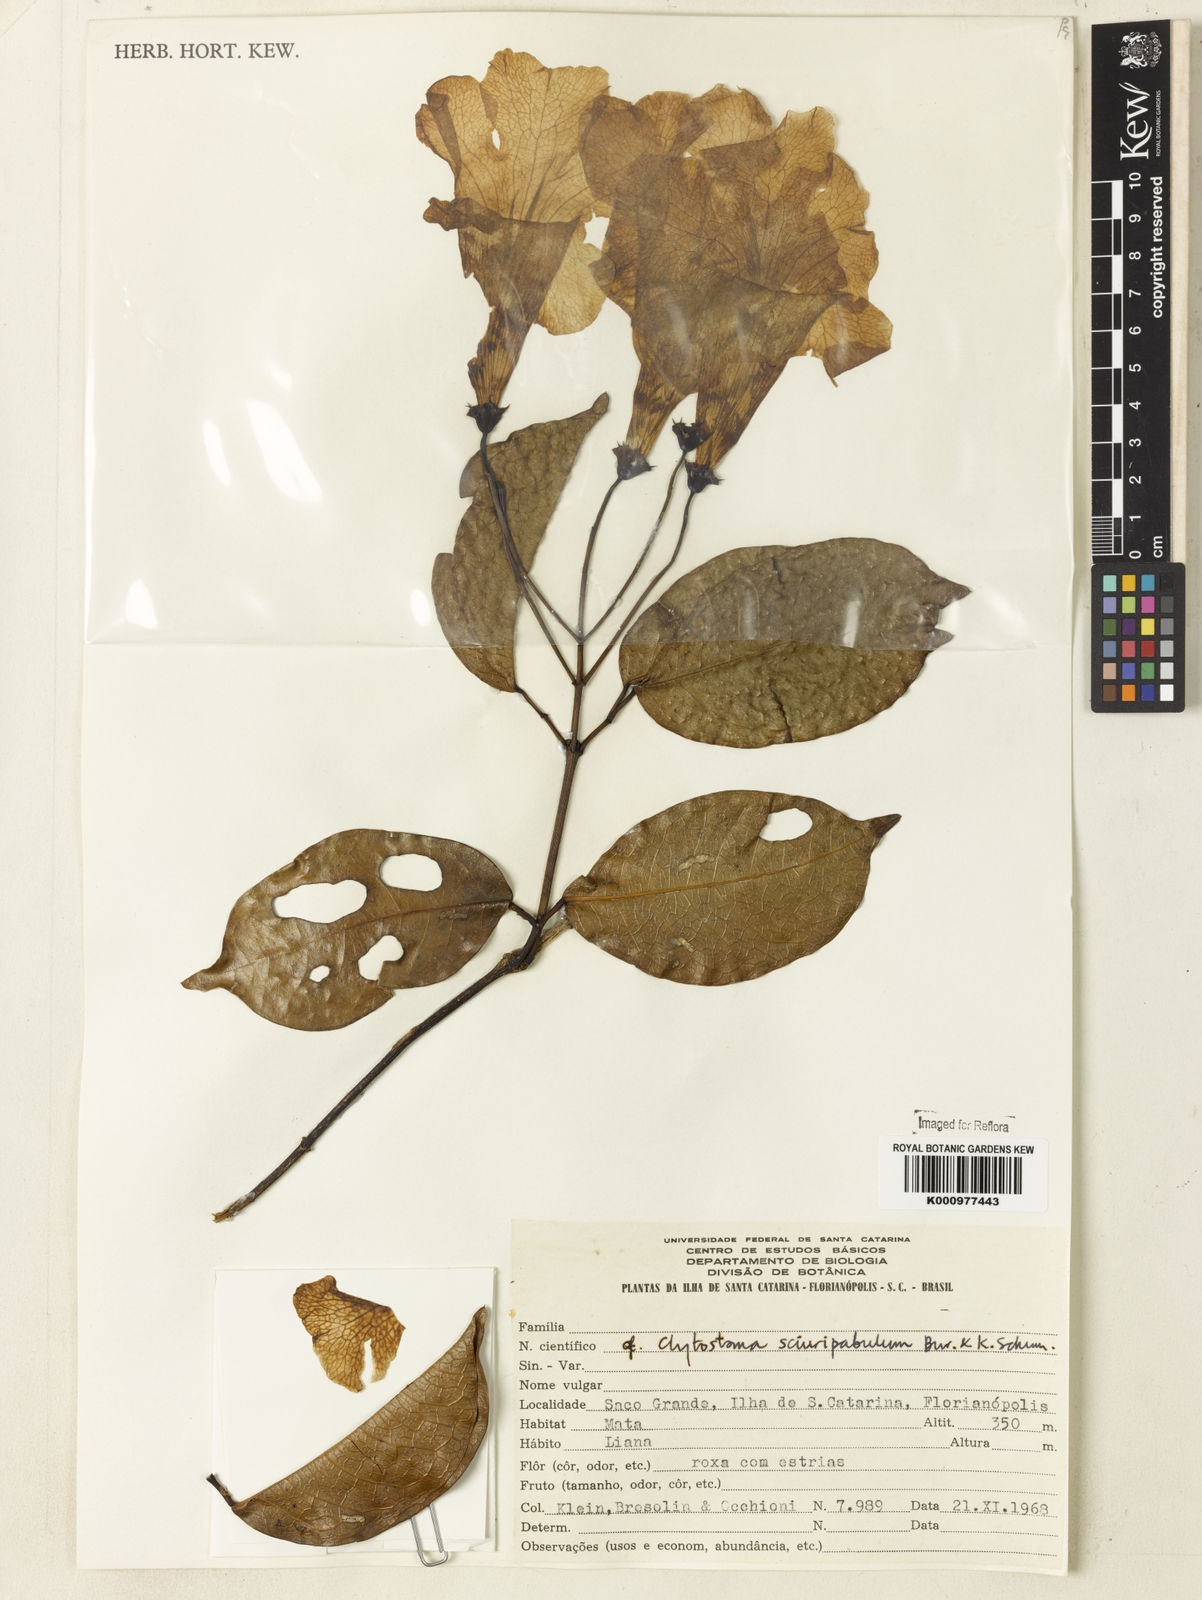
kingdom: Plantae
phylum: Tracheophyta
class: Magnoliopsida
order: Lamiales
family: Bignoniaceae
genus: Bignonia
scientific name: Bignonia
